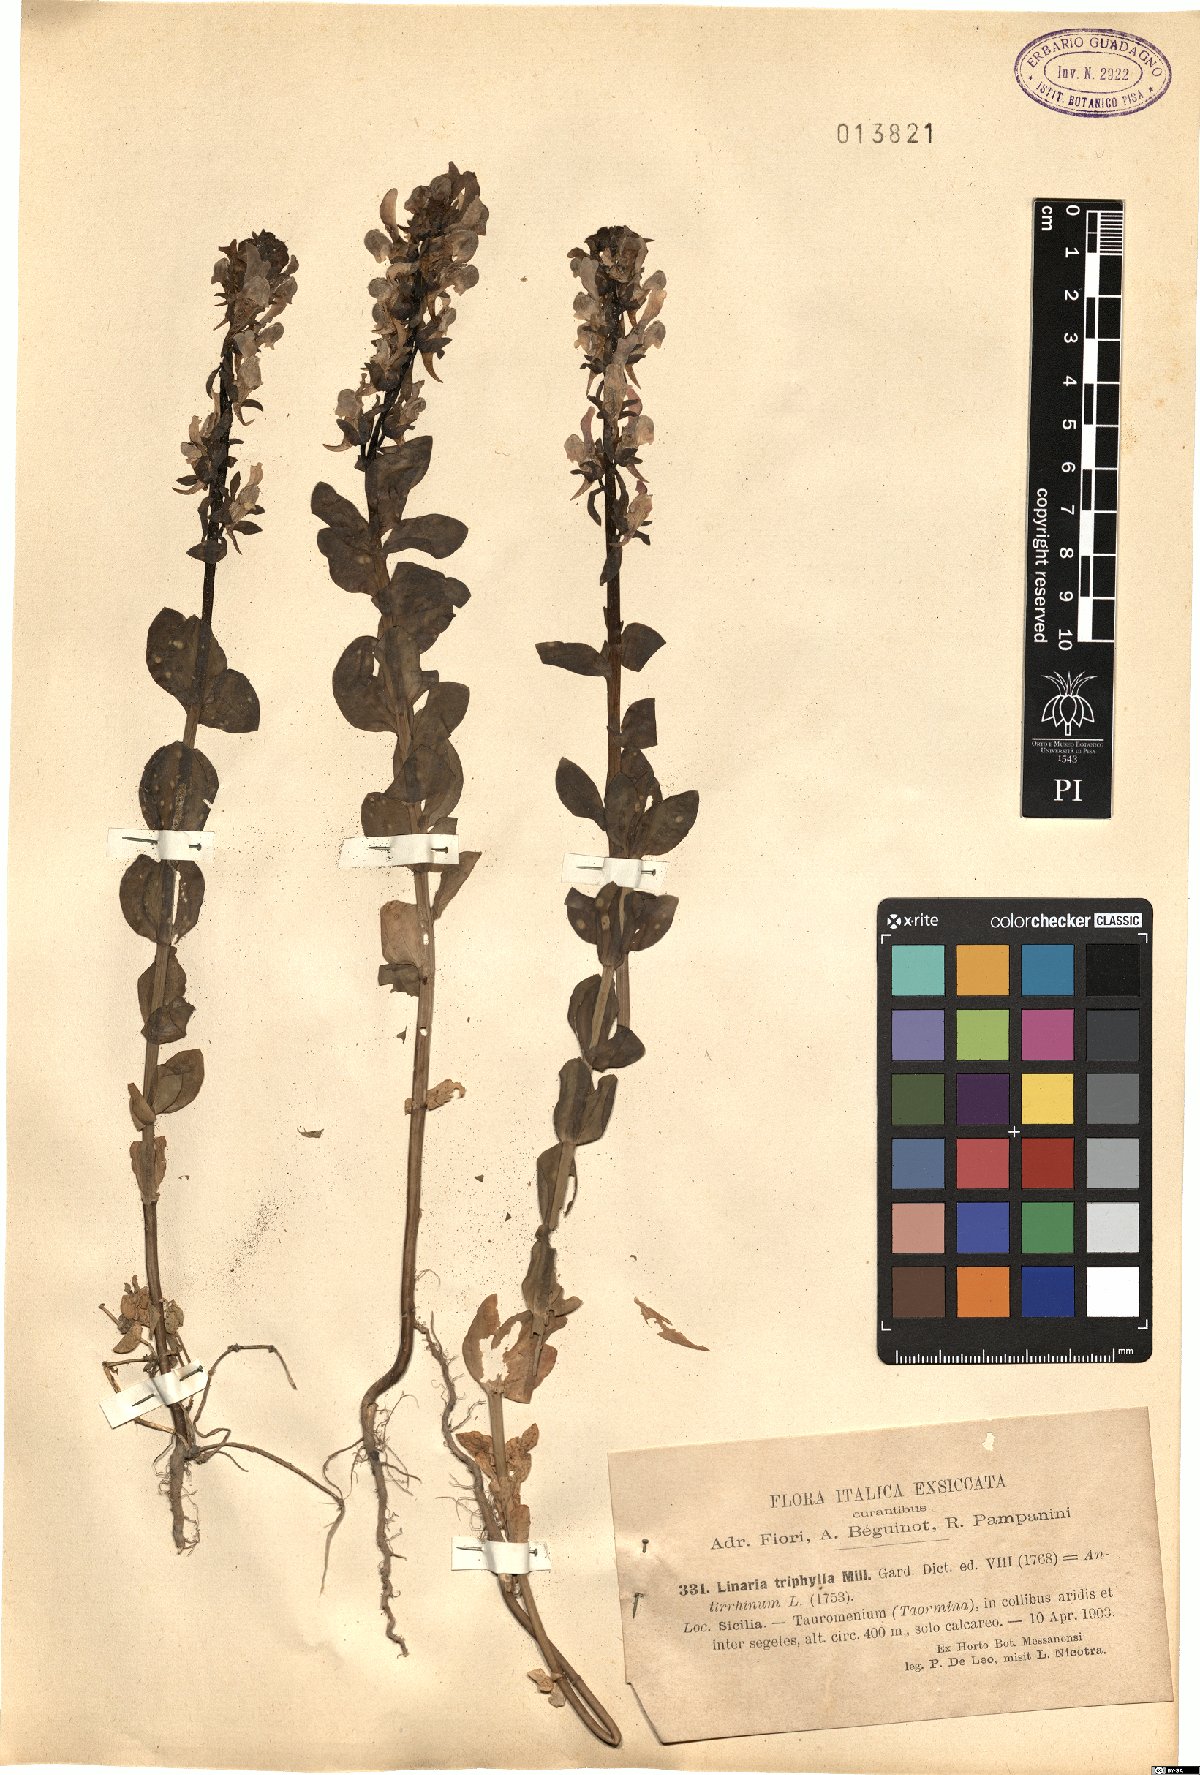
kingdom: Plantae
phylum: Tracheophyta
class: Magnoliopsida
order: Lamiales
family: Plantaginaceae
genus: Linaria
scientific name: Linaria triphylla
